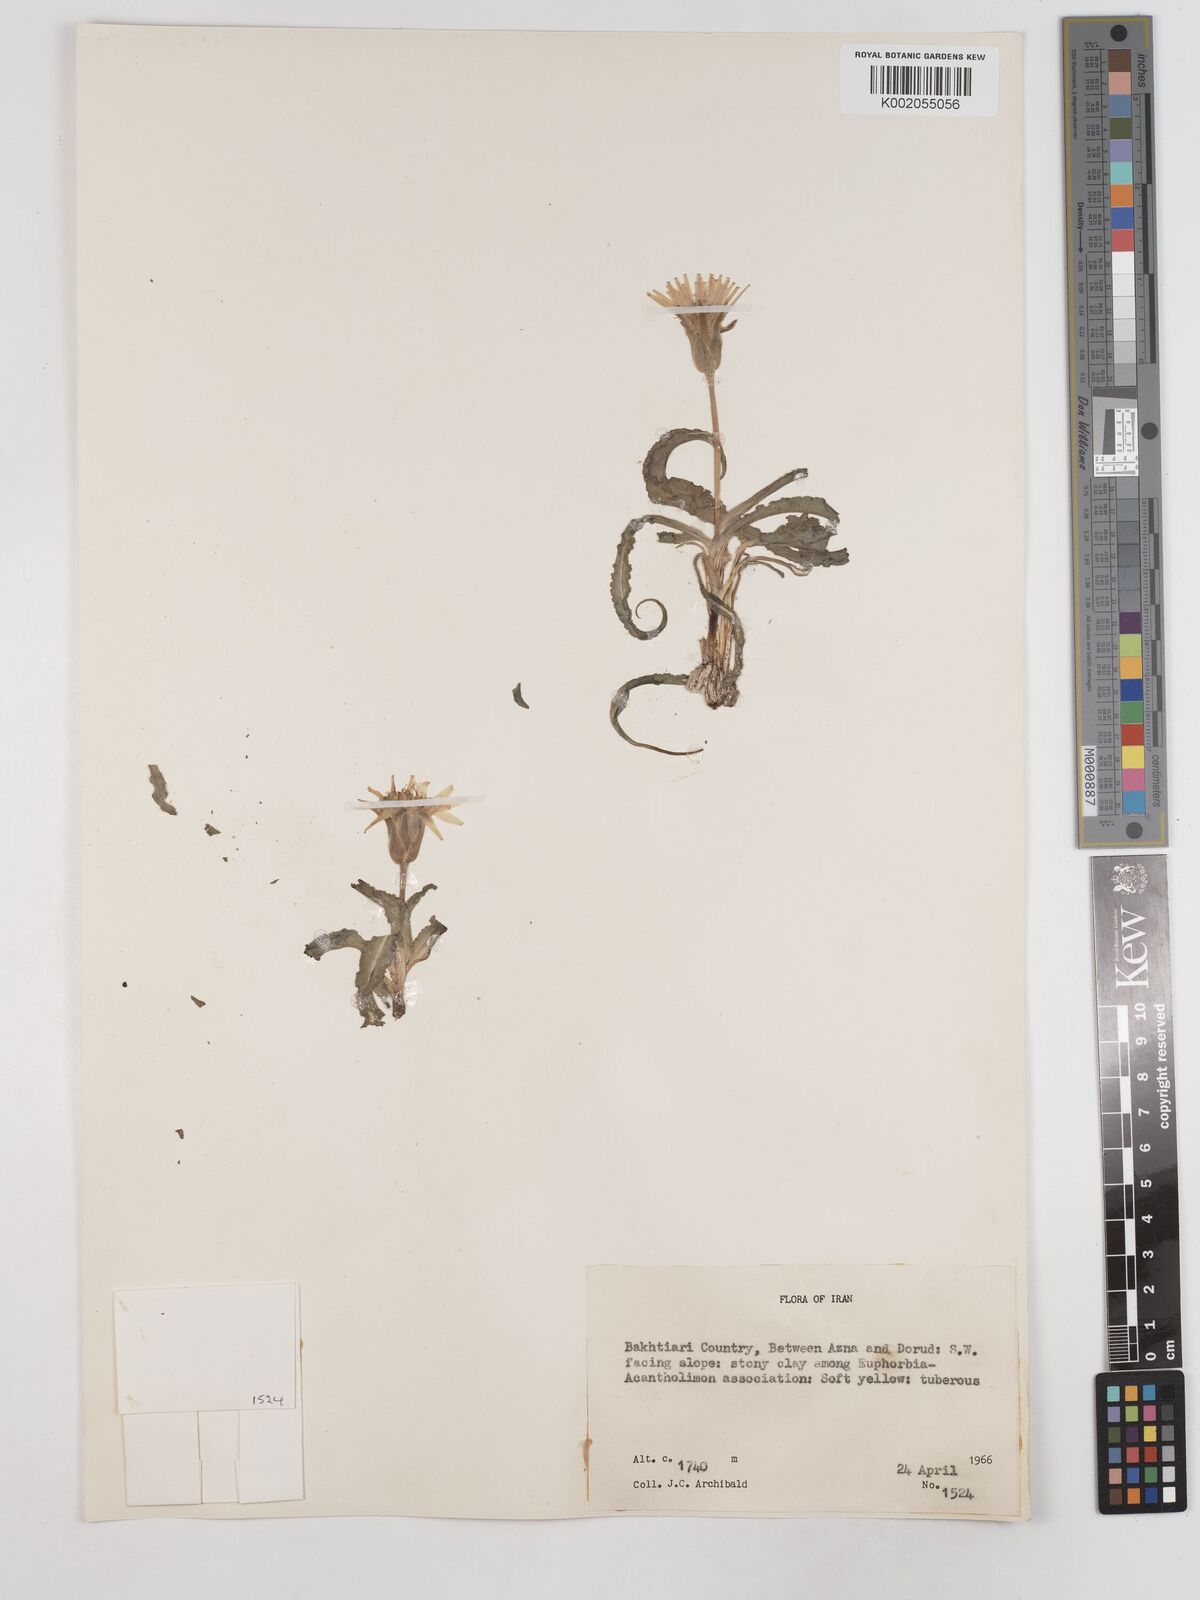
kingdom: Plantae
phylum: Tracheophyta
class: Magnoliopsida
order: Asterales
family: Asteraceae
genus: Candollea
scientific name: Candollea mollis
